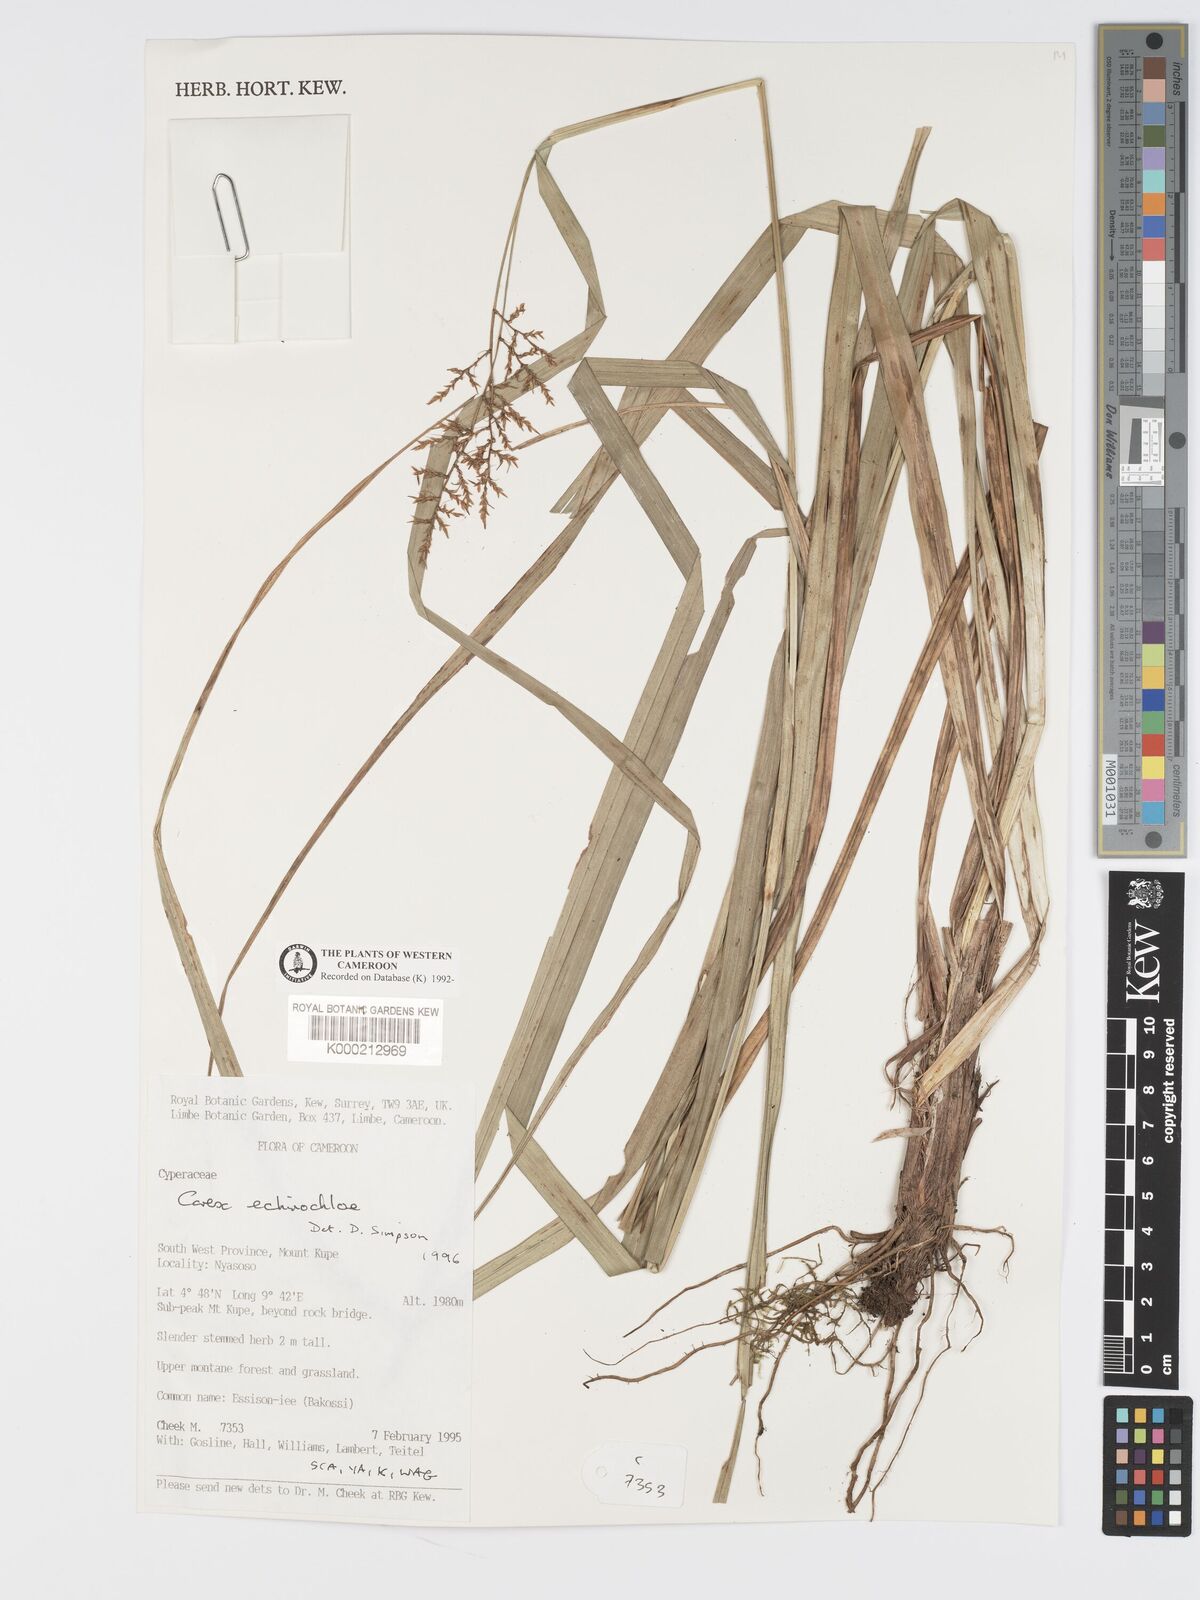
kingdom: Plantae
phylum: Tracheophyta
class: Liliopsida
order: Poales
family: Cyperaceae
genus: Carex
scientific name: Carex
